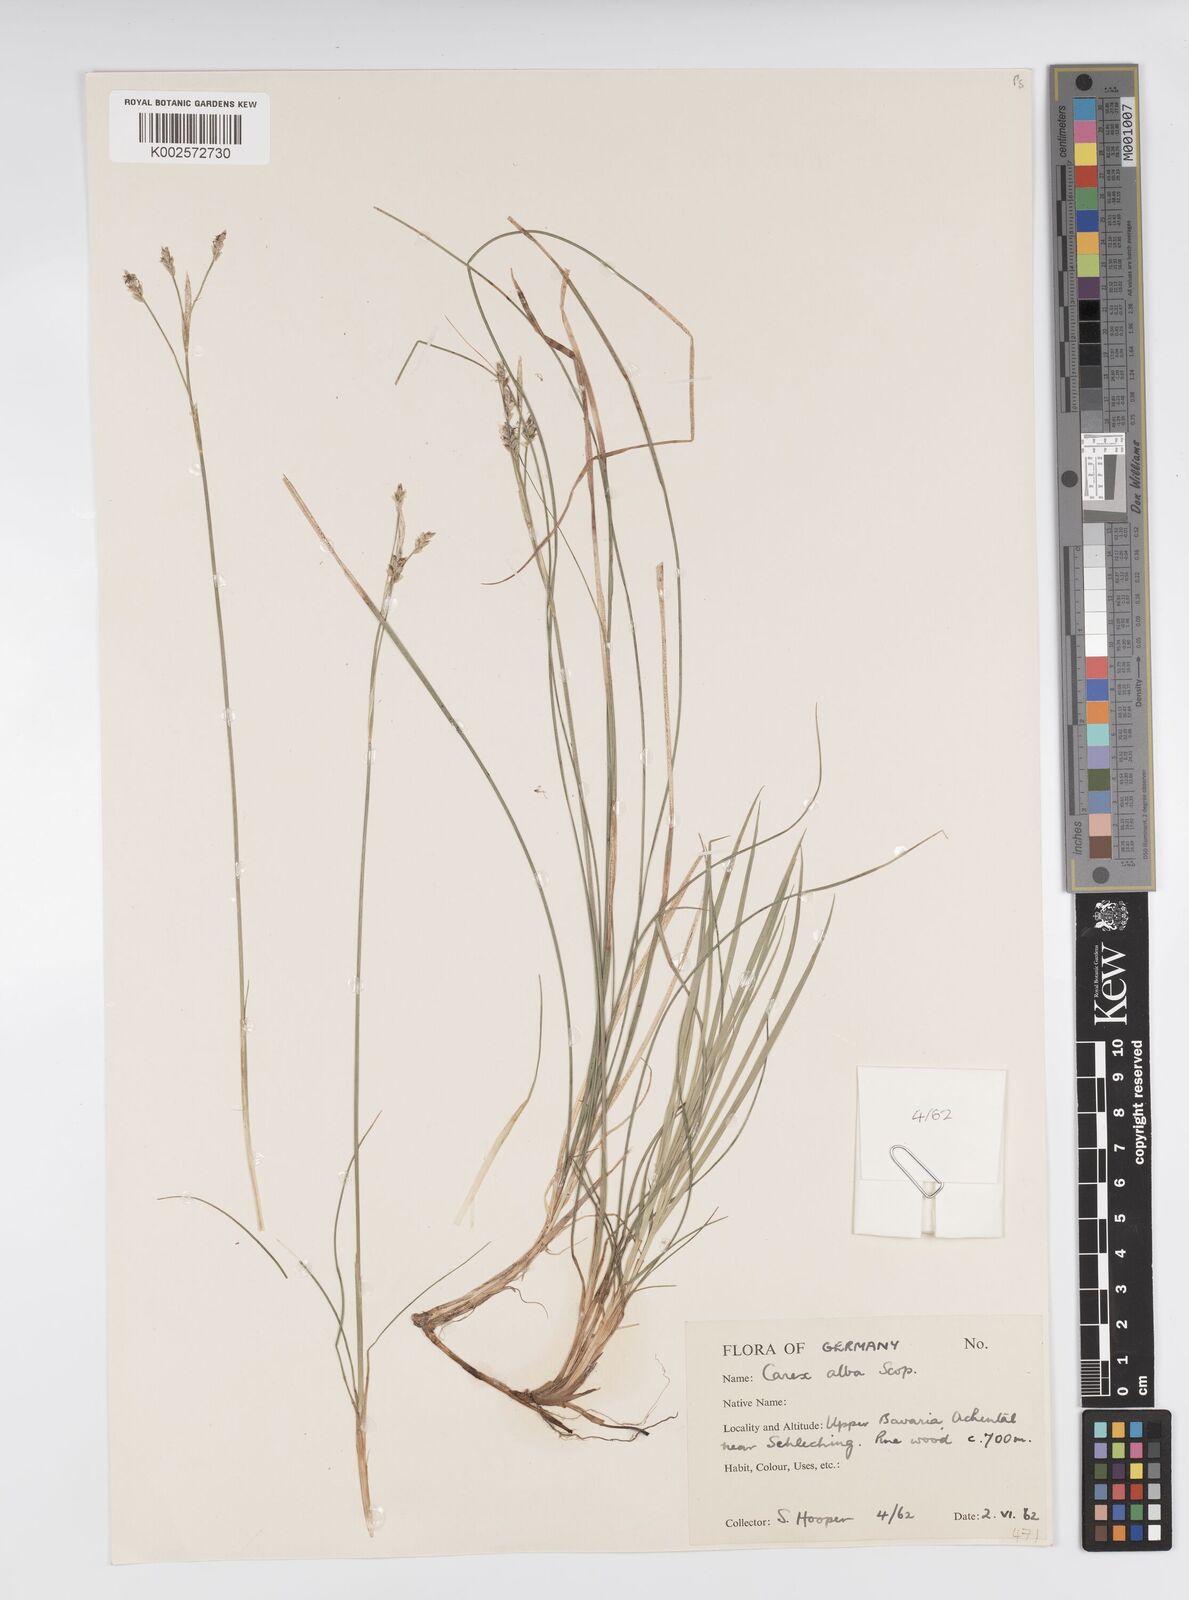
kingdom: Plantae
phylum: Tracheophyta
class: Liliopsida
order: Poales
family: Cyperaceae
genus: Carex
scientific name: Carex alba
